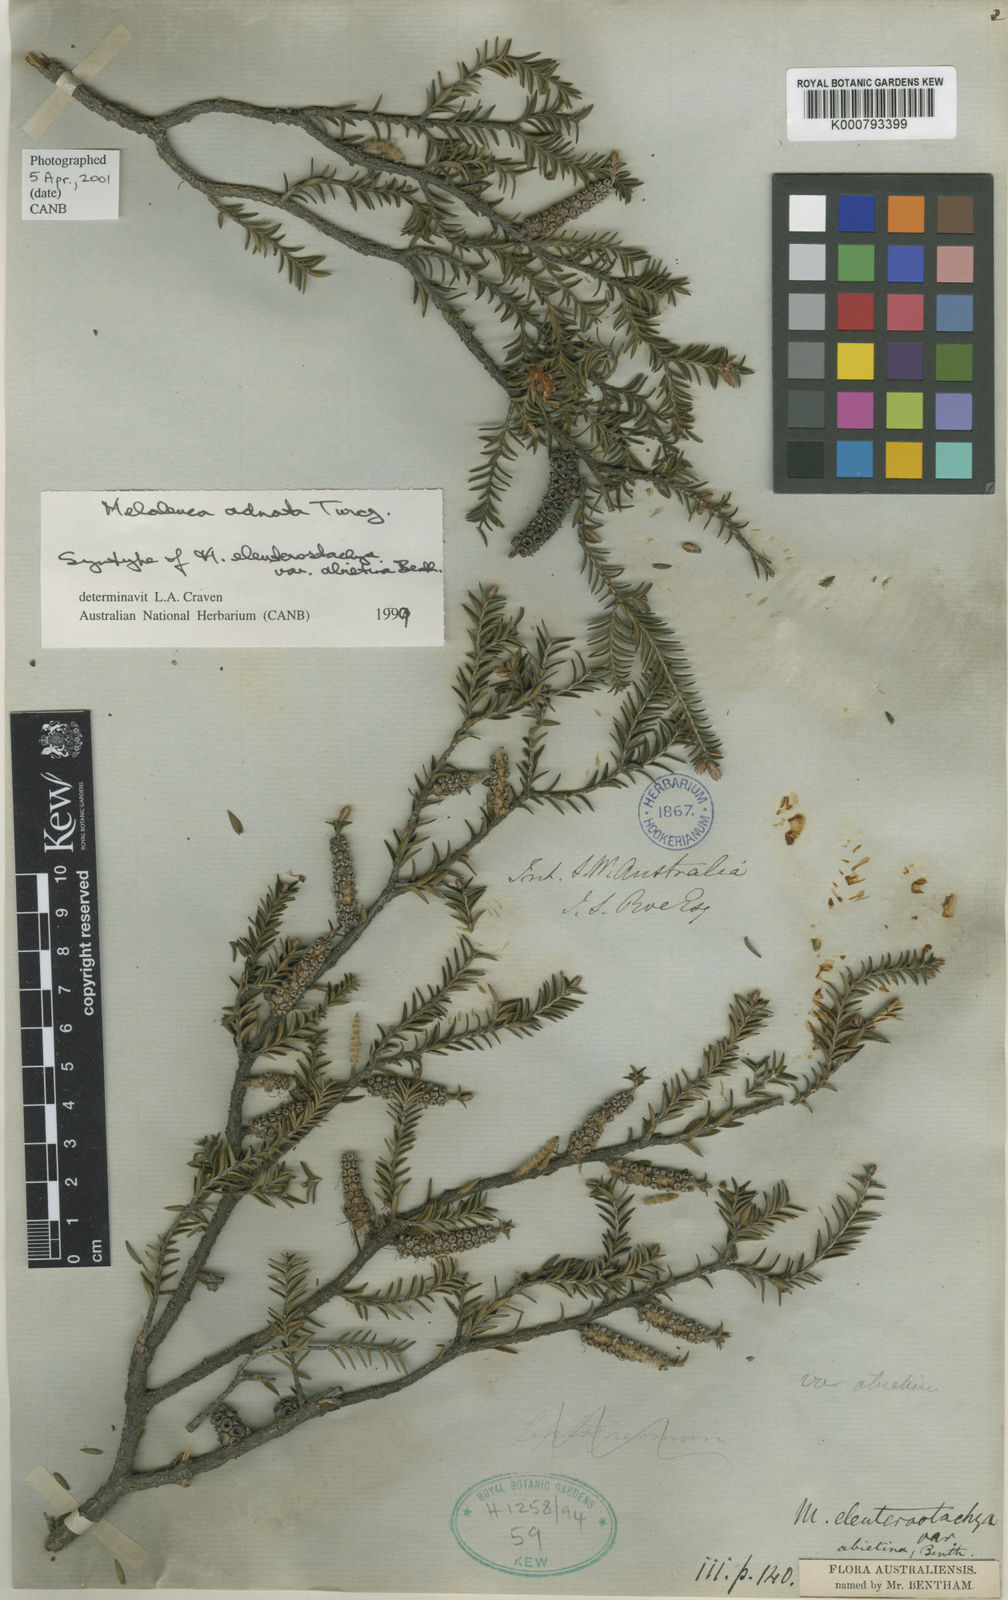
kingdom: Plantae
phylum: Tracheophyta
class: Magnoliopsida
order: Myrtales
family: Myrtaceae
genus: Melaleuca
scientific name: Melaleuca adnata
